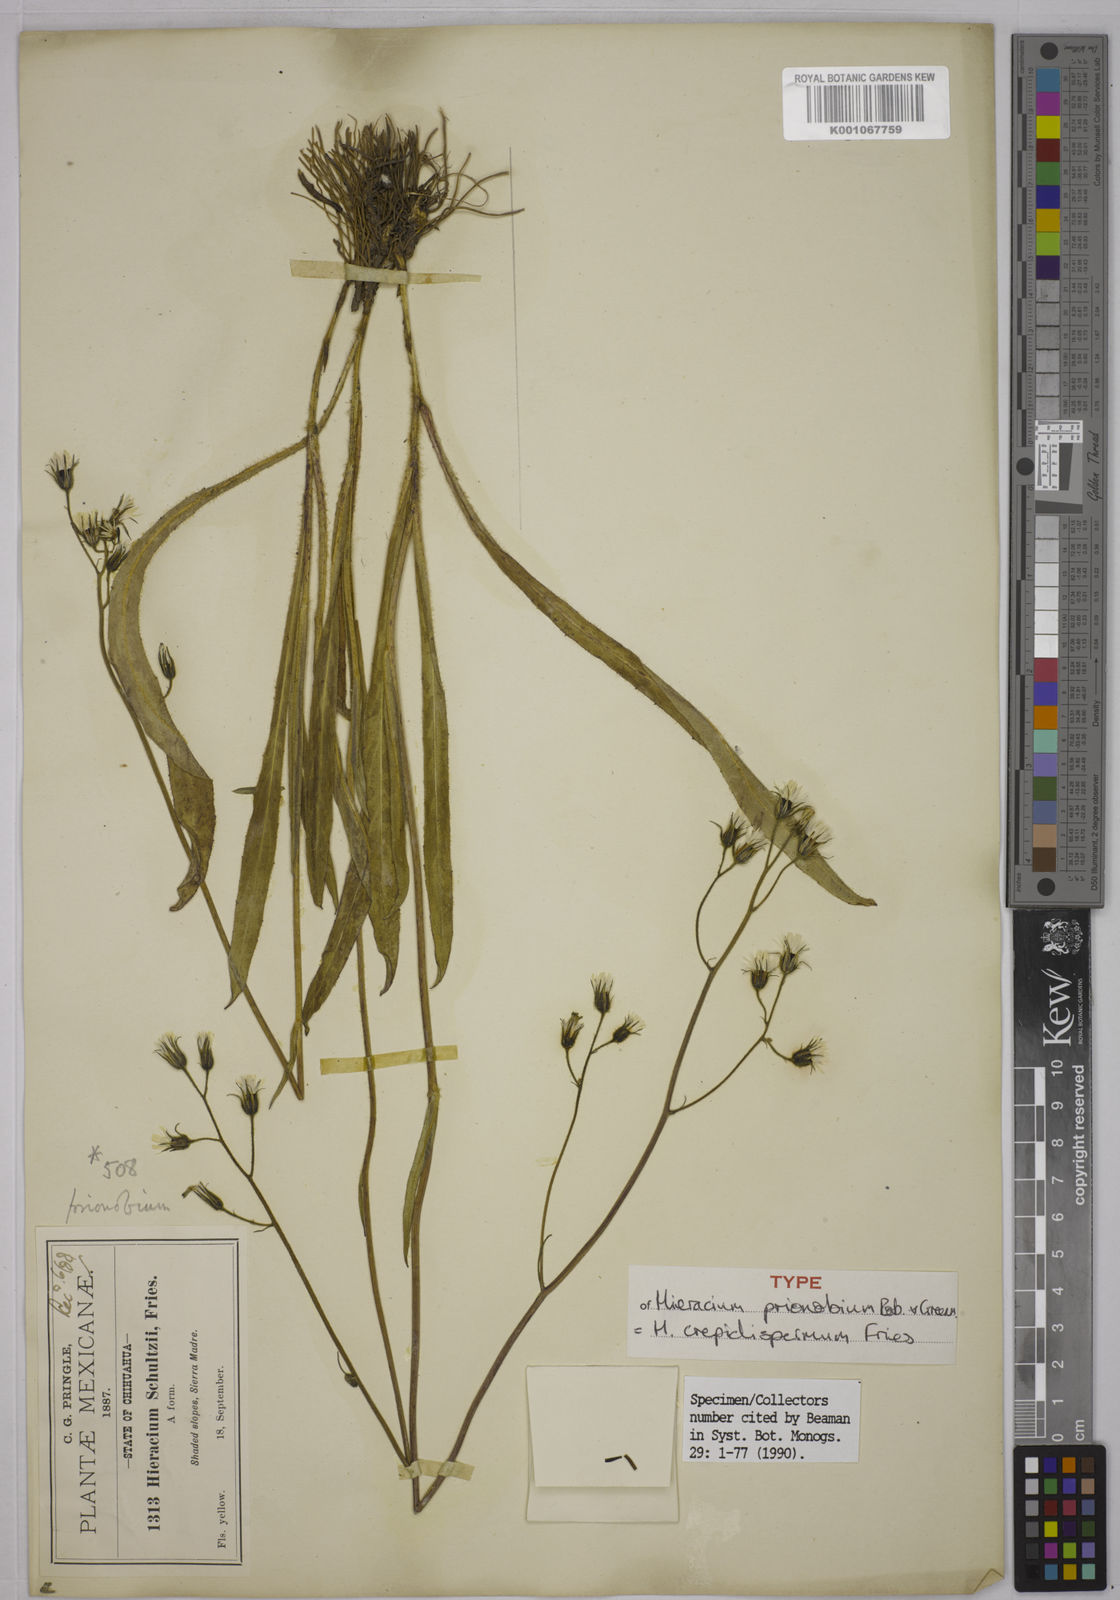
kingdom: Plantae
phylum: Tracheophyta
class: Magnoliopsida
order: Asterales
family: Asteraceae
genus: Hieracium
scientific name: Hieracium crepidispermum
